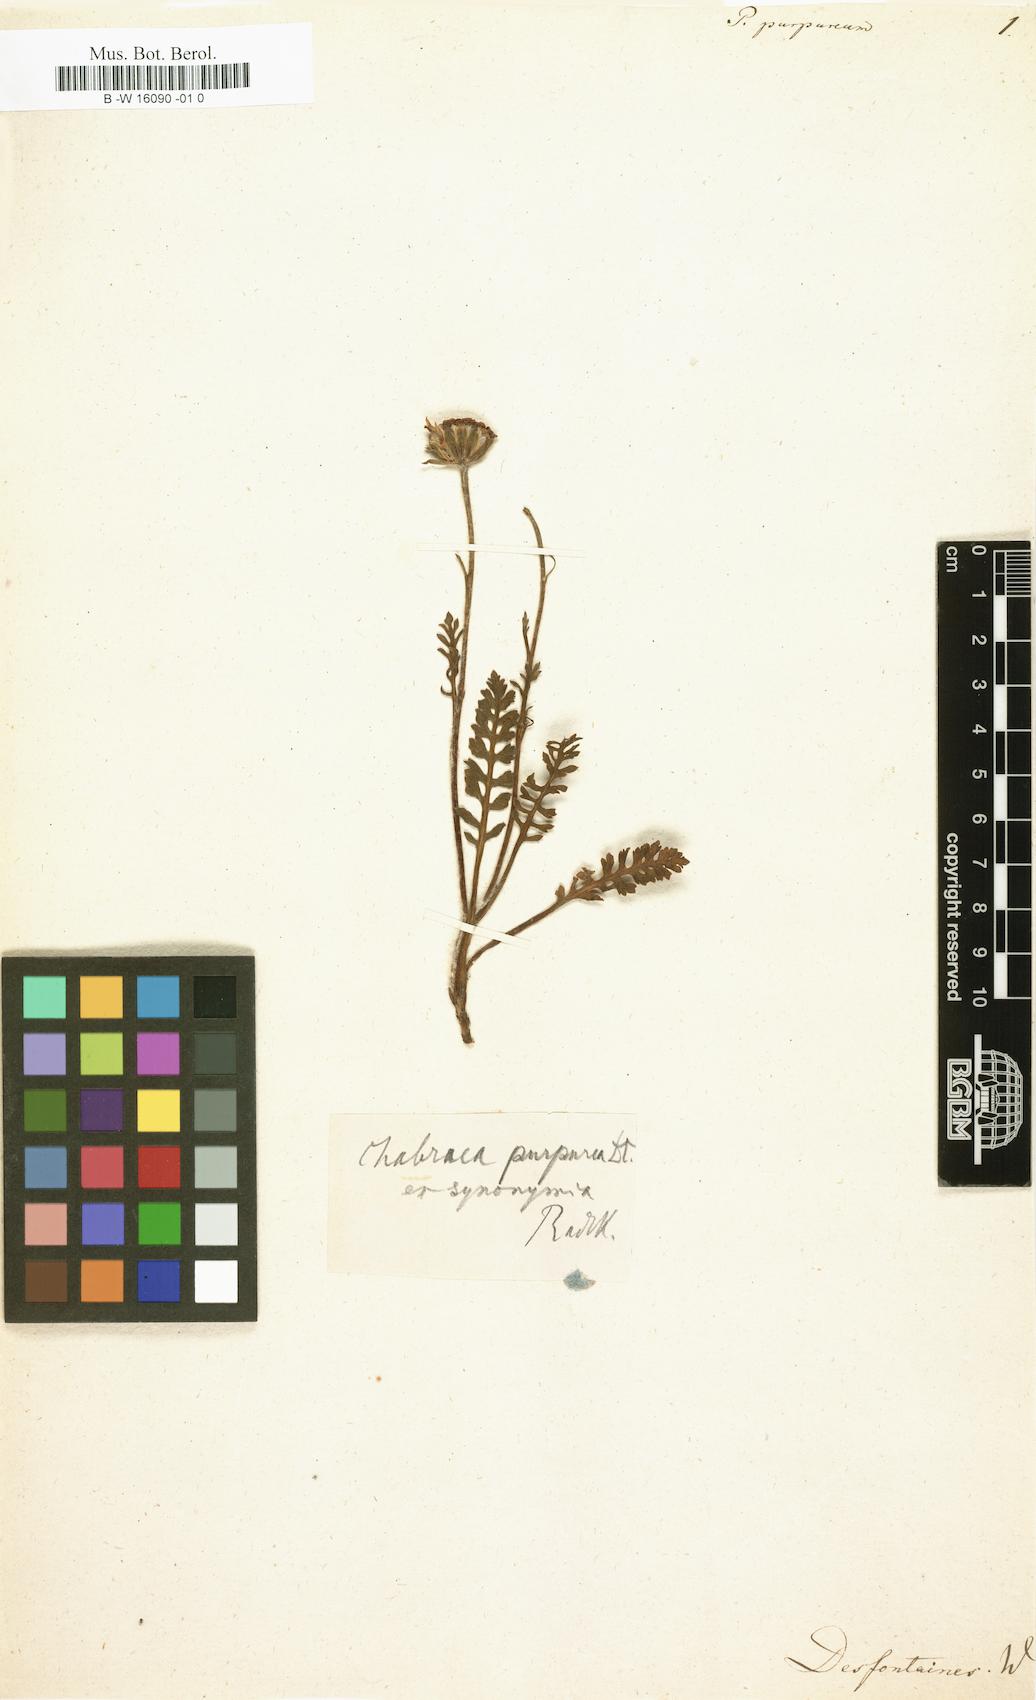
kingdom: Plantae
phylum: Tracheophyta
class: Magnoliopsida
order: Asterales
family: Asteraceae
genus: Leucheria
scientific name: Leucheria purpurea
